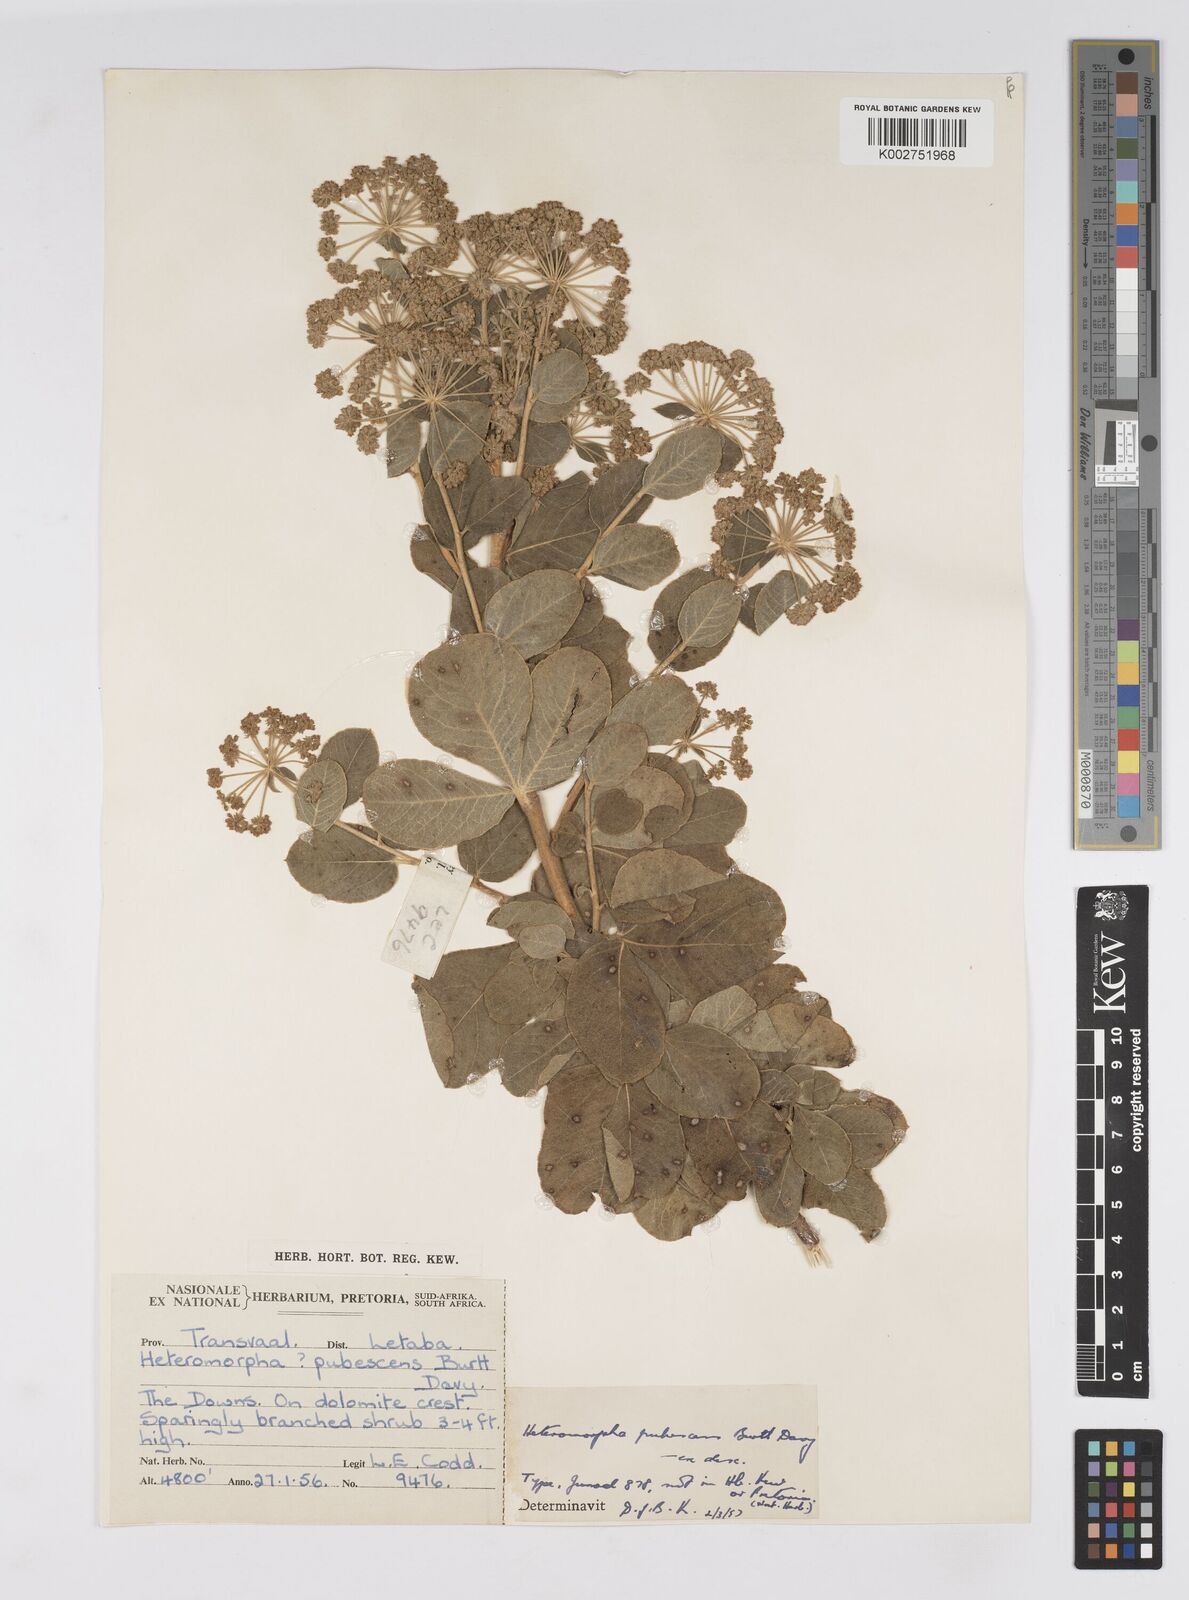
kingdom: Plantae
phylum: Tracheophyta
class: Magnoliopsida
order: Apiales
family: Apiaceae
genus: Heteromorpha
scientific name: Heteromorpha pubescens
